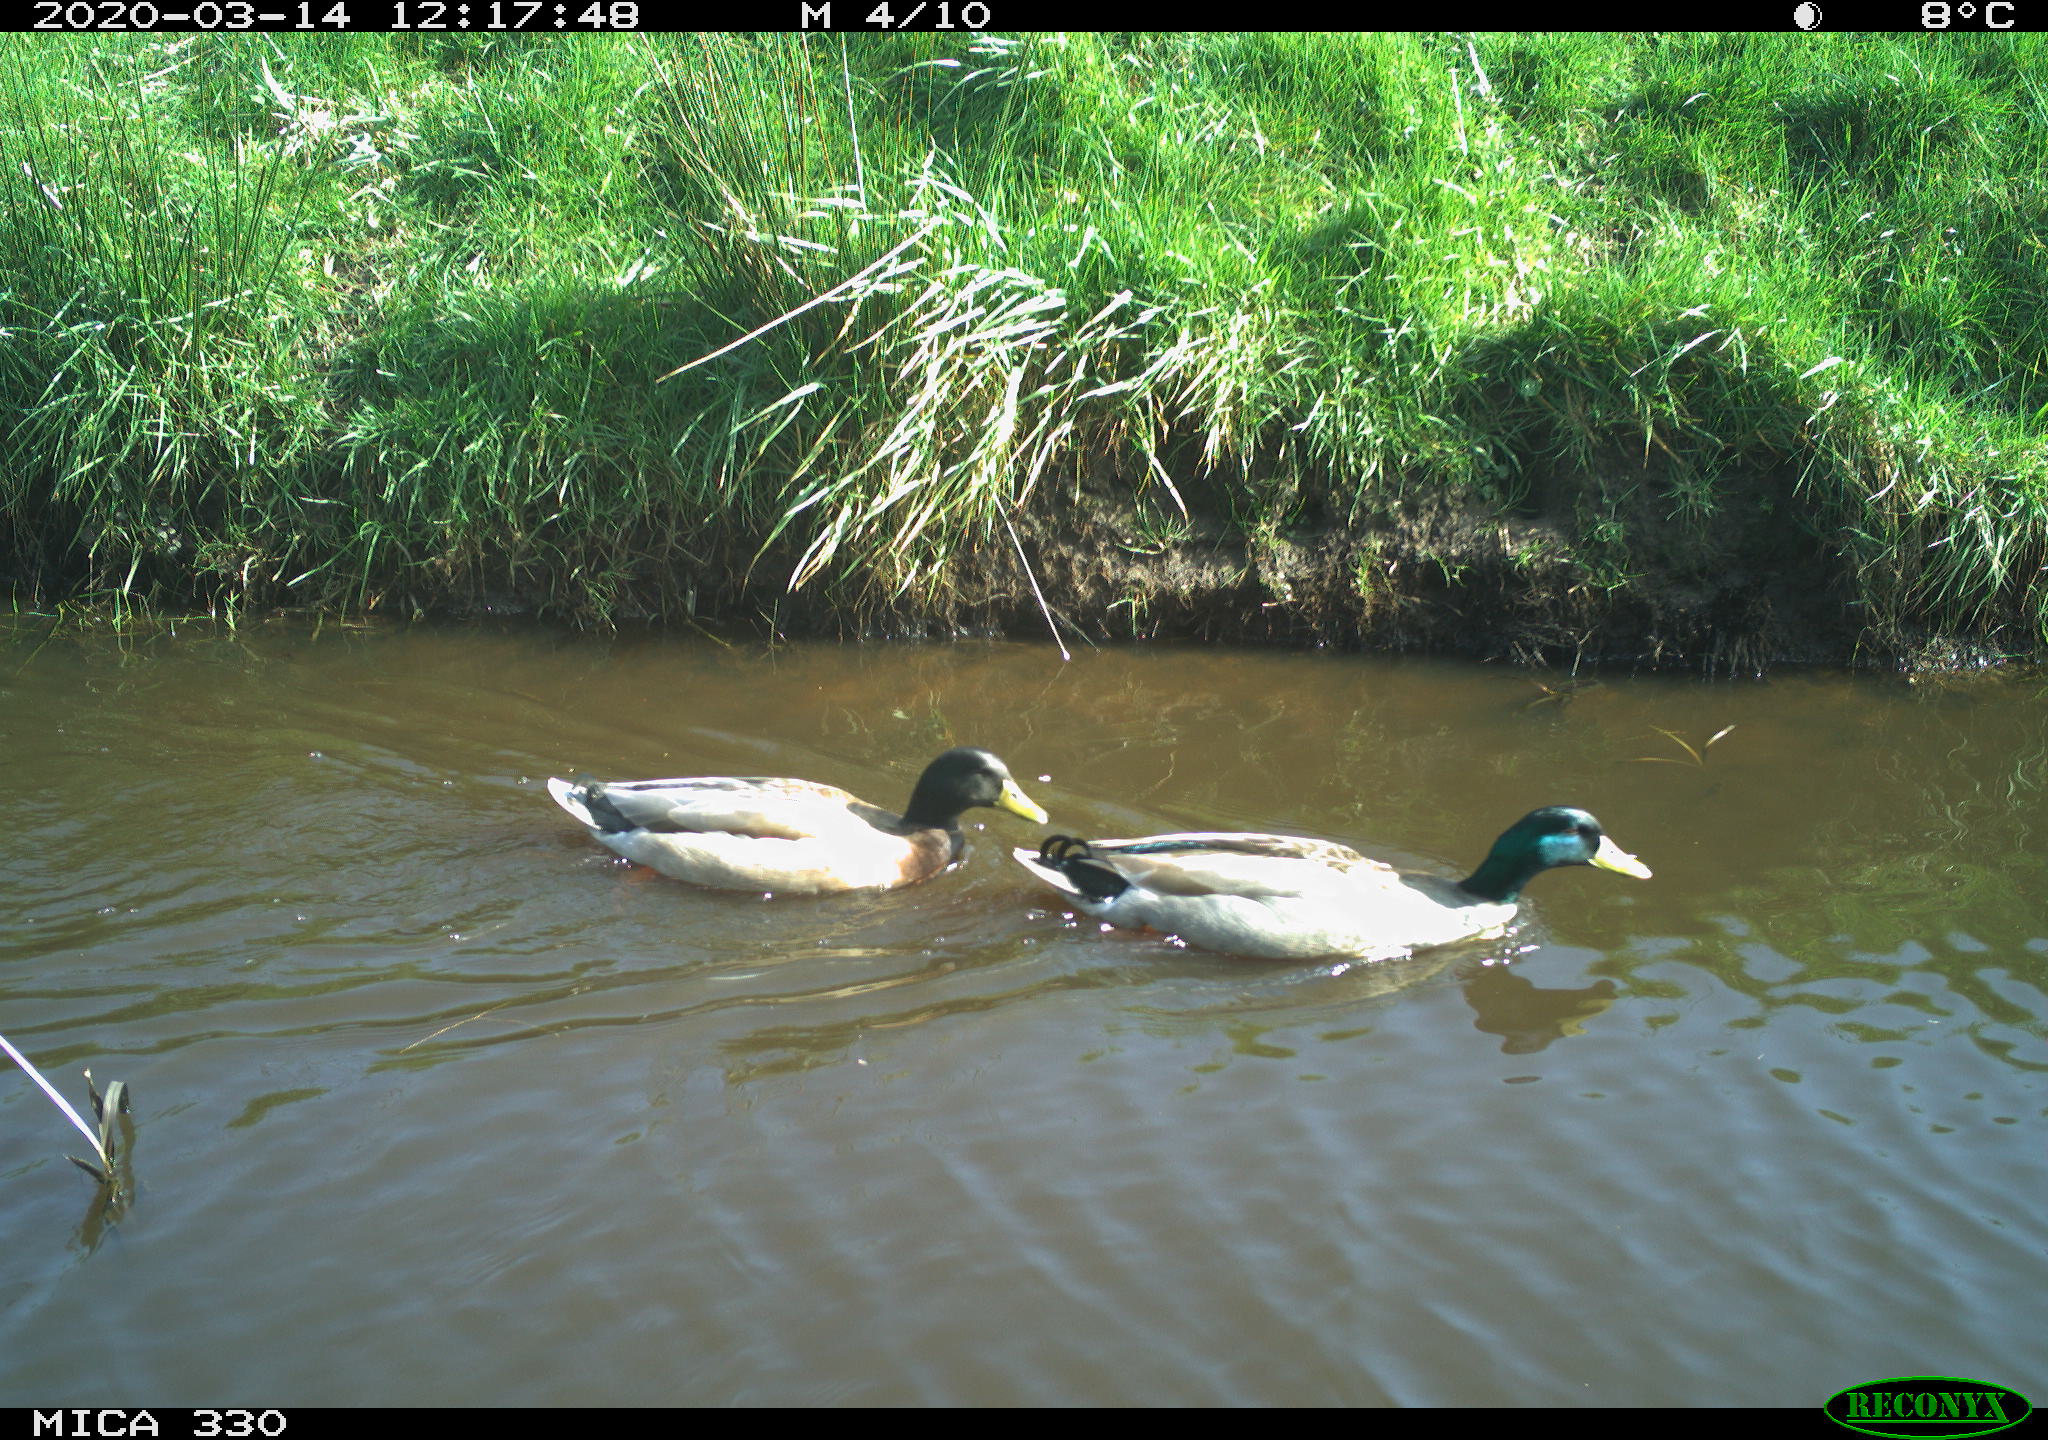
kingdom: Animalia
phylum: Chordata
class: Aves
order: Anseriformes
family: Anatidae
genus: Anas
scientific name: Anas platyrhynchos
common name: Mallard
